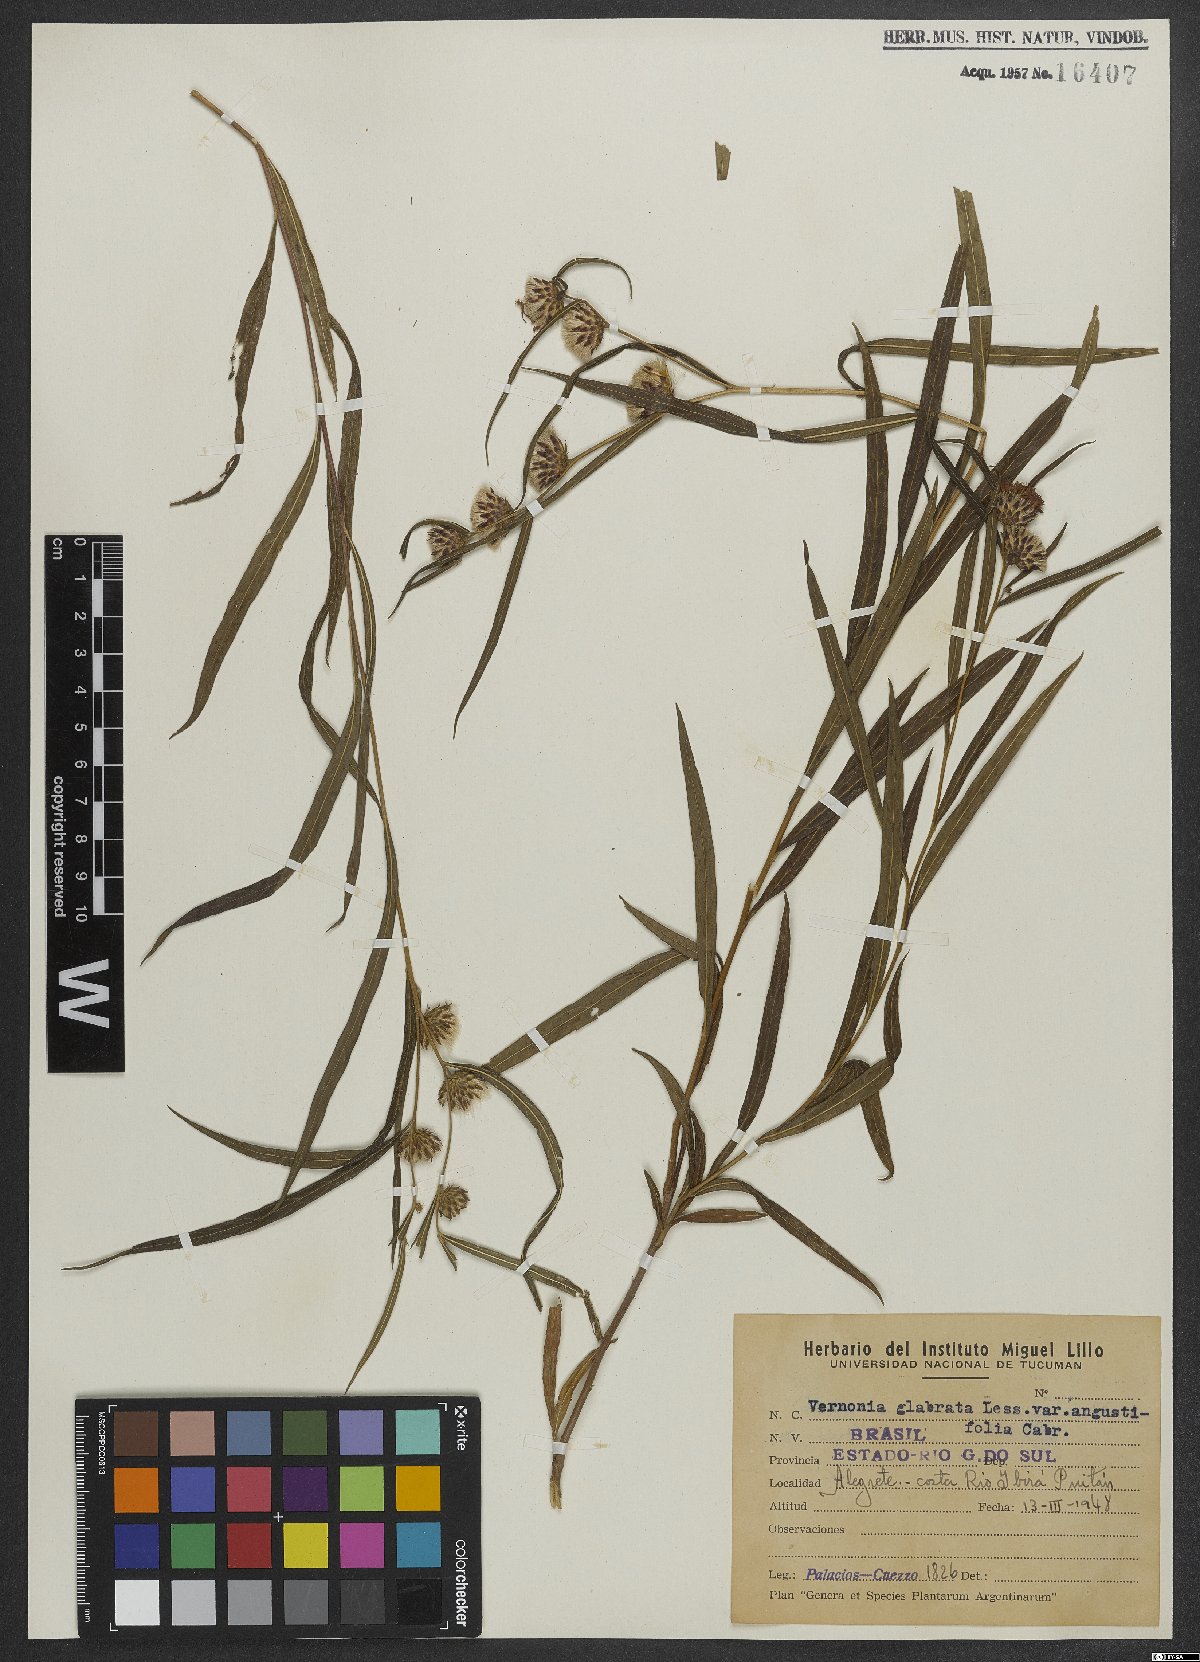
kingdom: Plantae
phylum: Tracheophyta
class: Magnoliopsida
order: Asterales
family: Asteraceae
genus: Lessingianthus
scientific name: Lessingianthus glabratus
